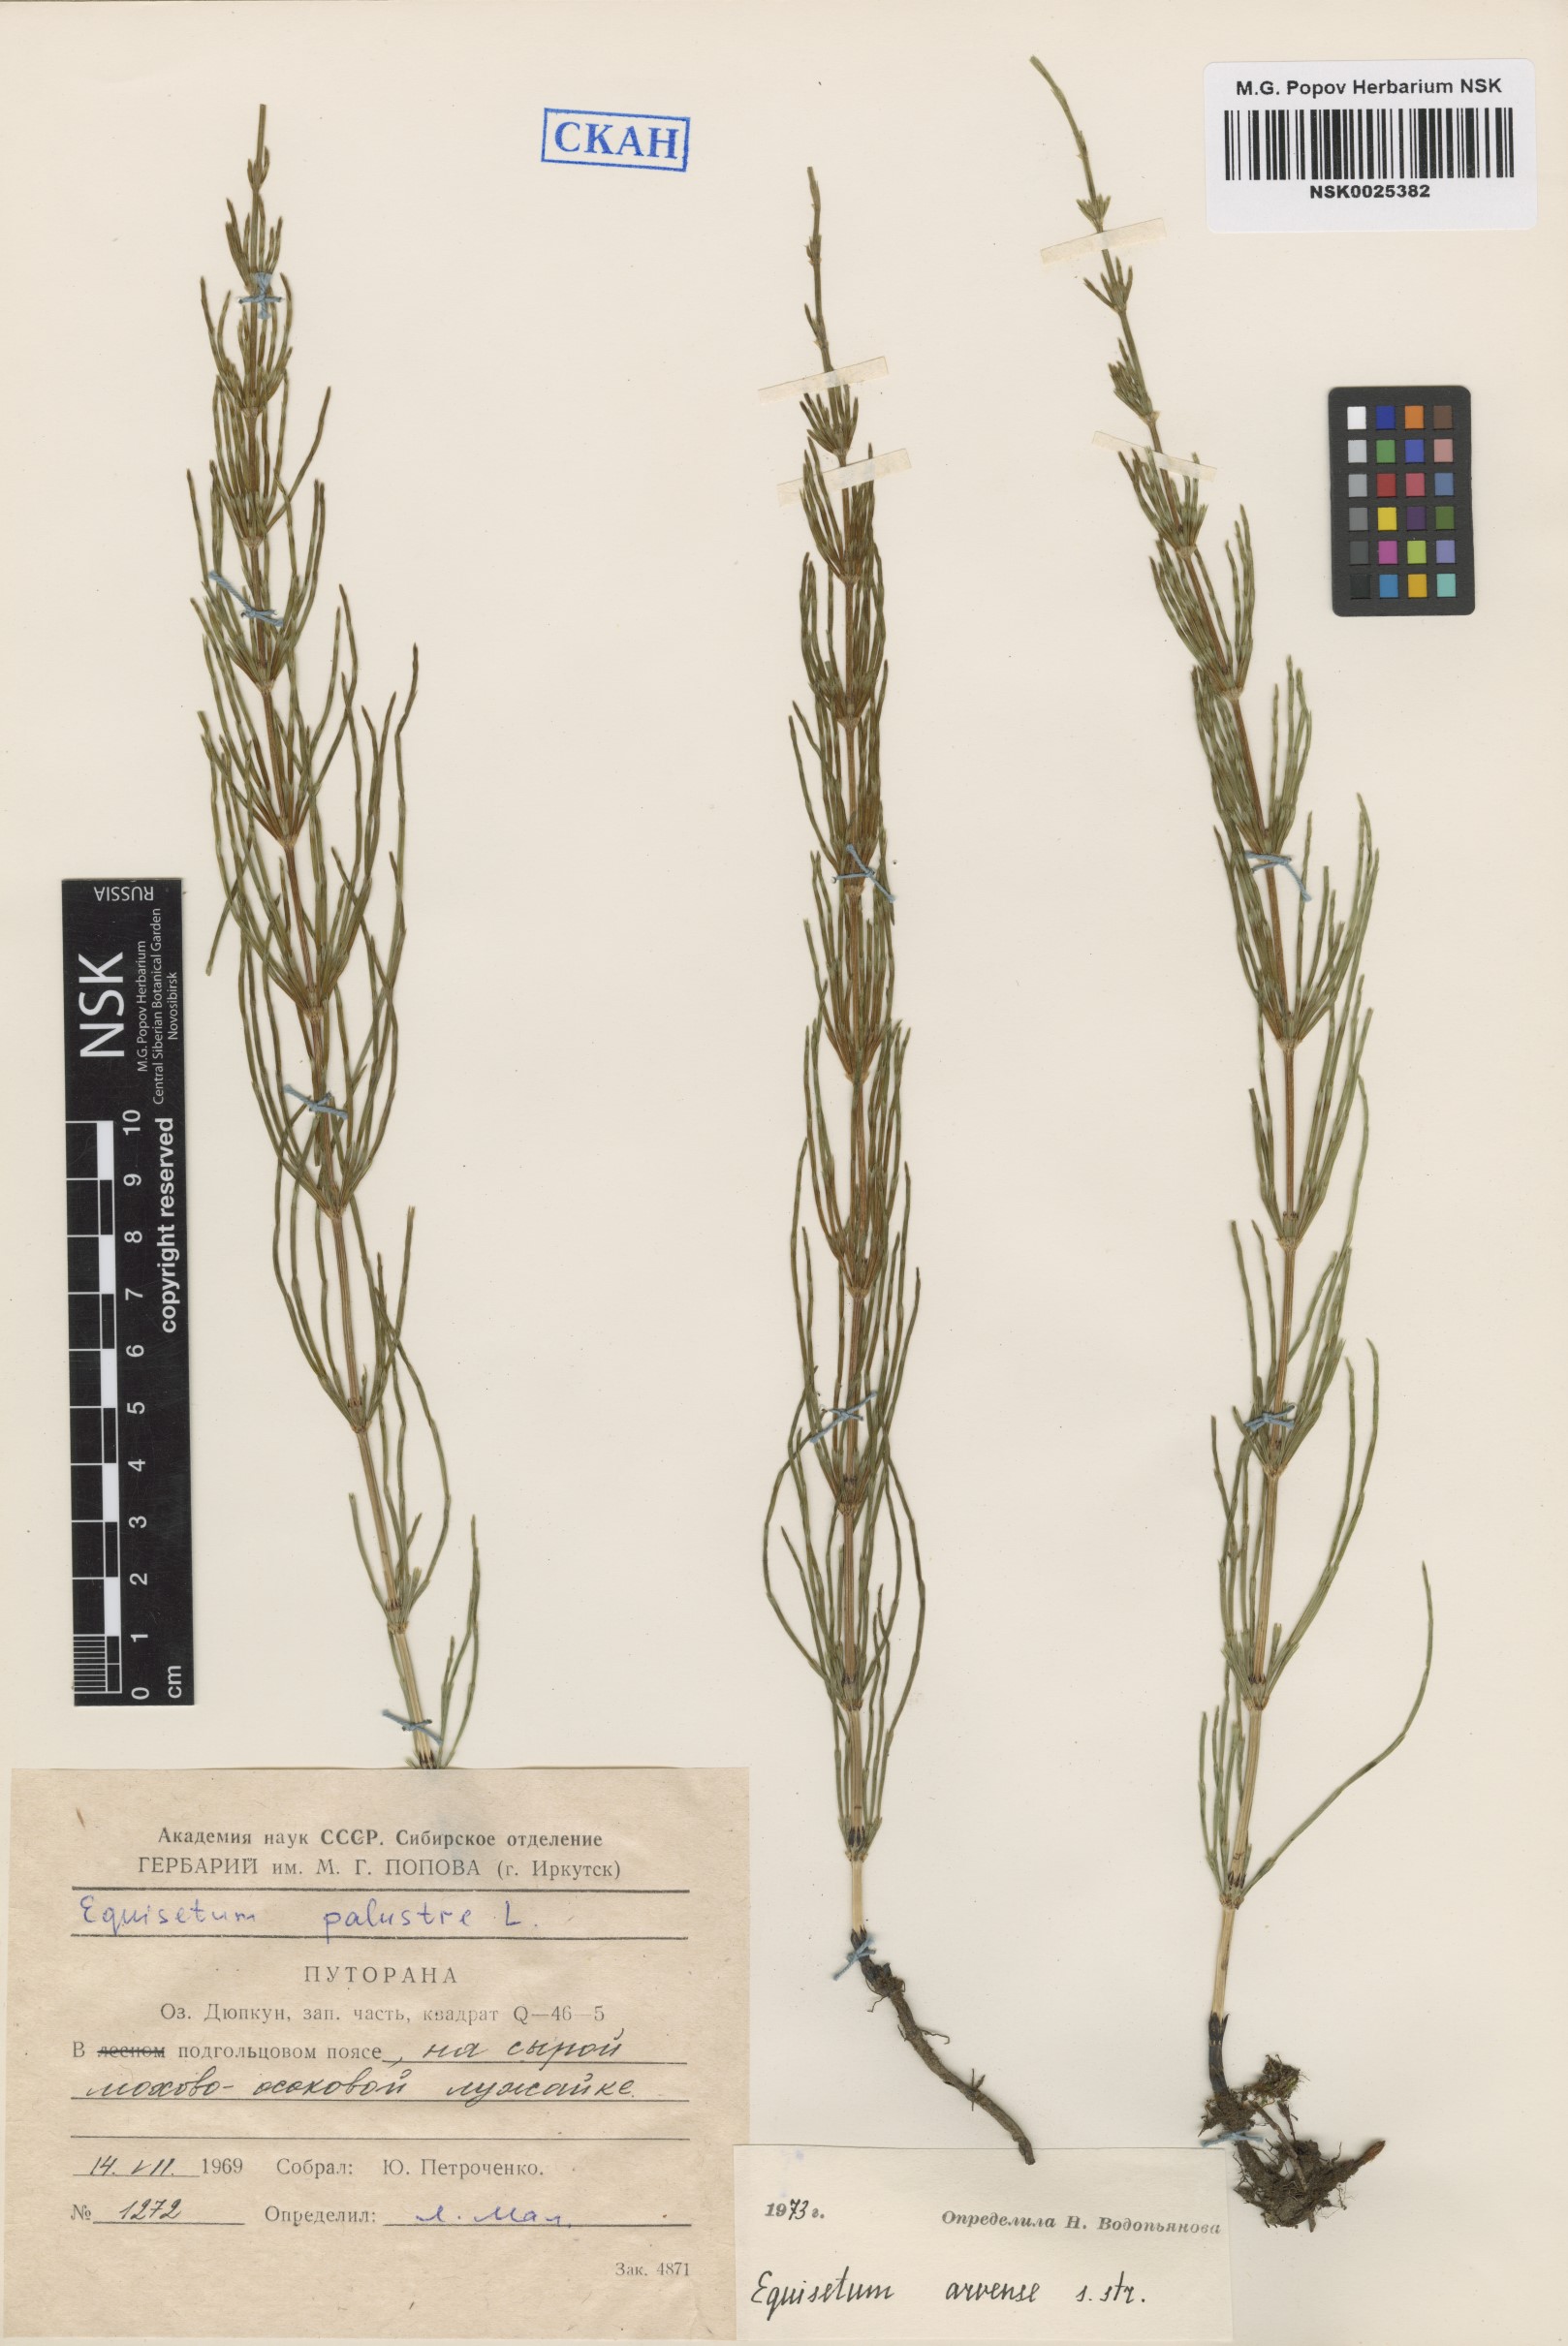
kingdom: Plantae
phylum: Tracheophyta
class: Polypodiopsida
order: Equisetales
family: Equisetaceae
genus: Equisetum
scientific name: Equisetum arvense
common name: Field horsetail
